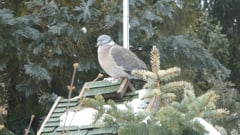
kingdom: Animalia
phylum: Chordata
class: Aves
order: Columbiformes
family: Columbidae
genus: Columba
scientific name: Columba palumbus
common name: Common wood pigeon
